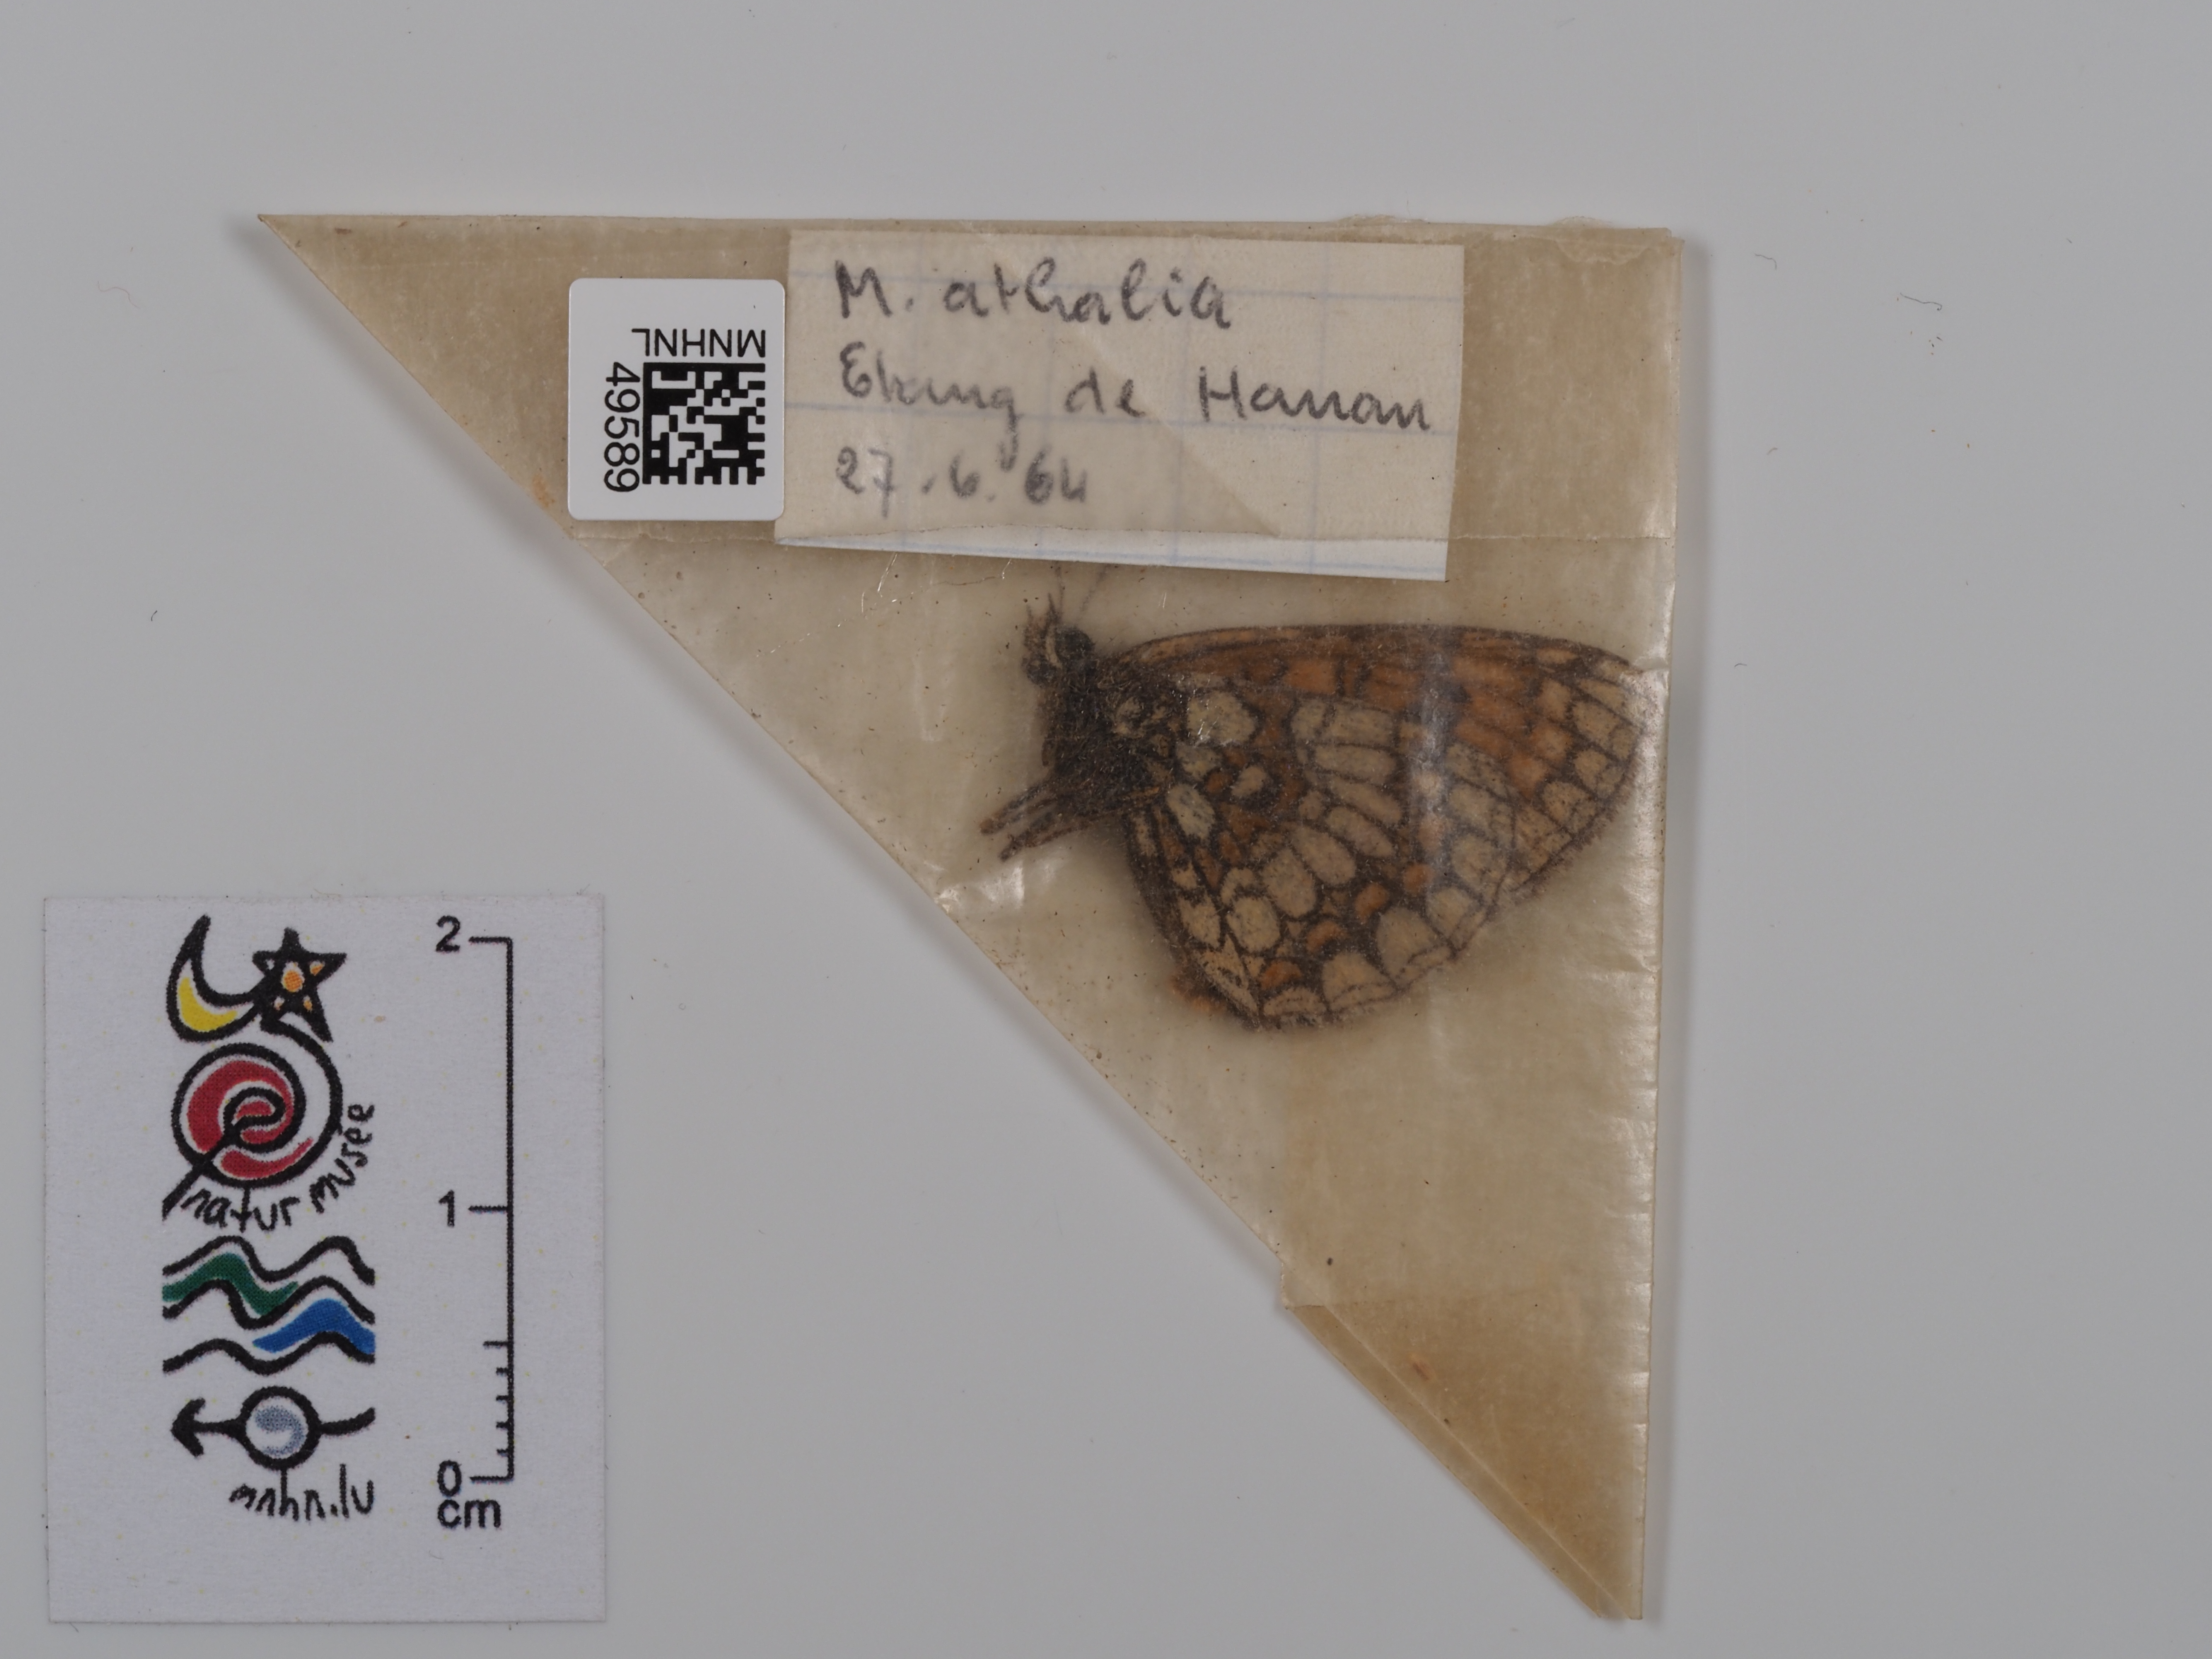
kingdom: Animalia
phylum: Arthropoda
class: Insecta
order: Lepidoptera
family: Nymphalidae
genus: Mellicta
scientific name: Mellicta athalia
